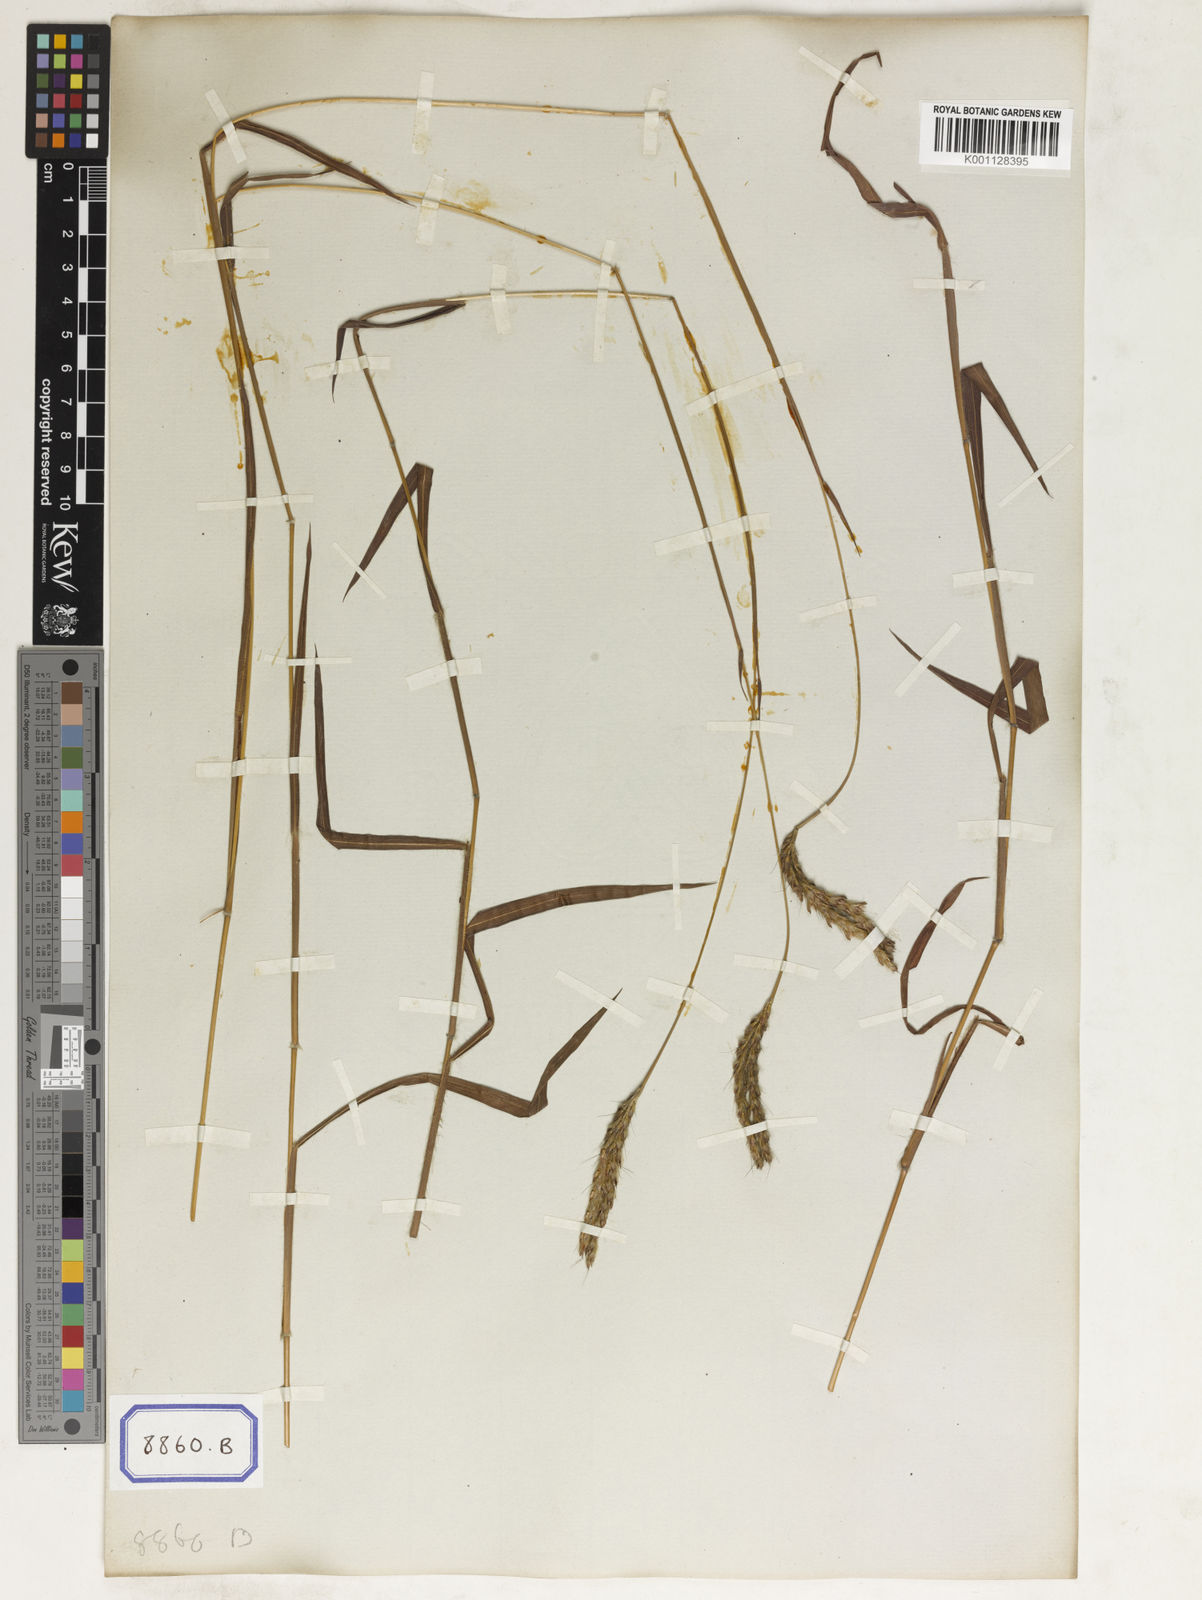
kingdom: Plantae
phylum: Tracheophyta
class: Liliopsida
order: Poales
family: Poaceae
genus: Spodiopogon
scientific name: Spodiopogon
